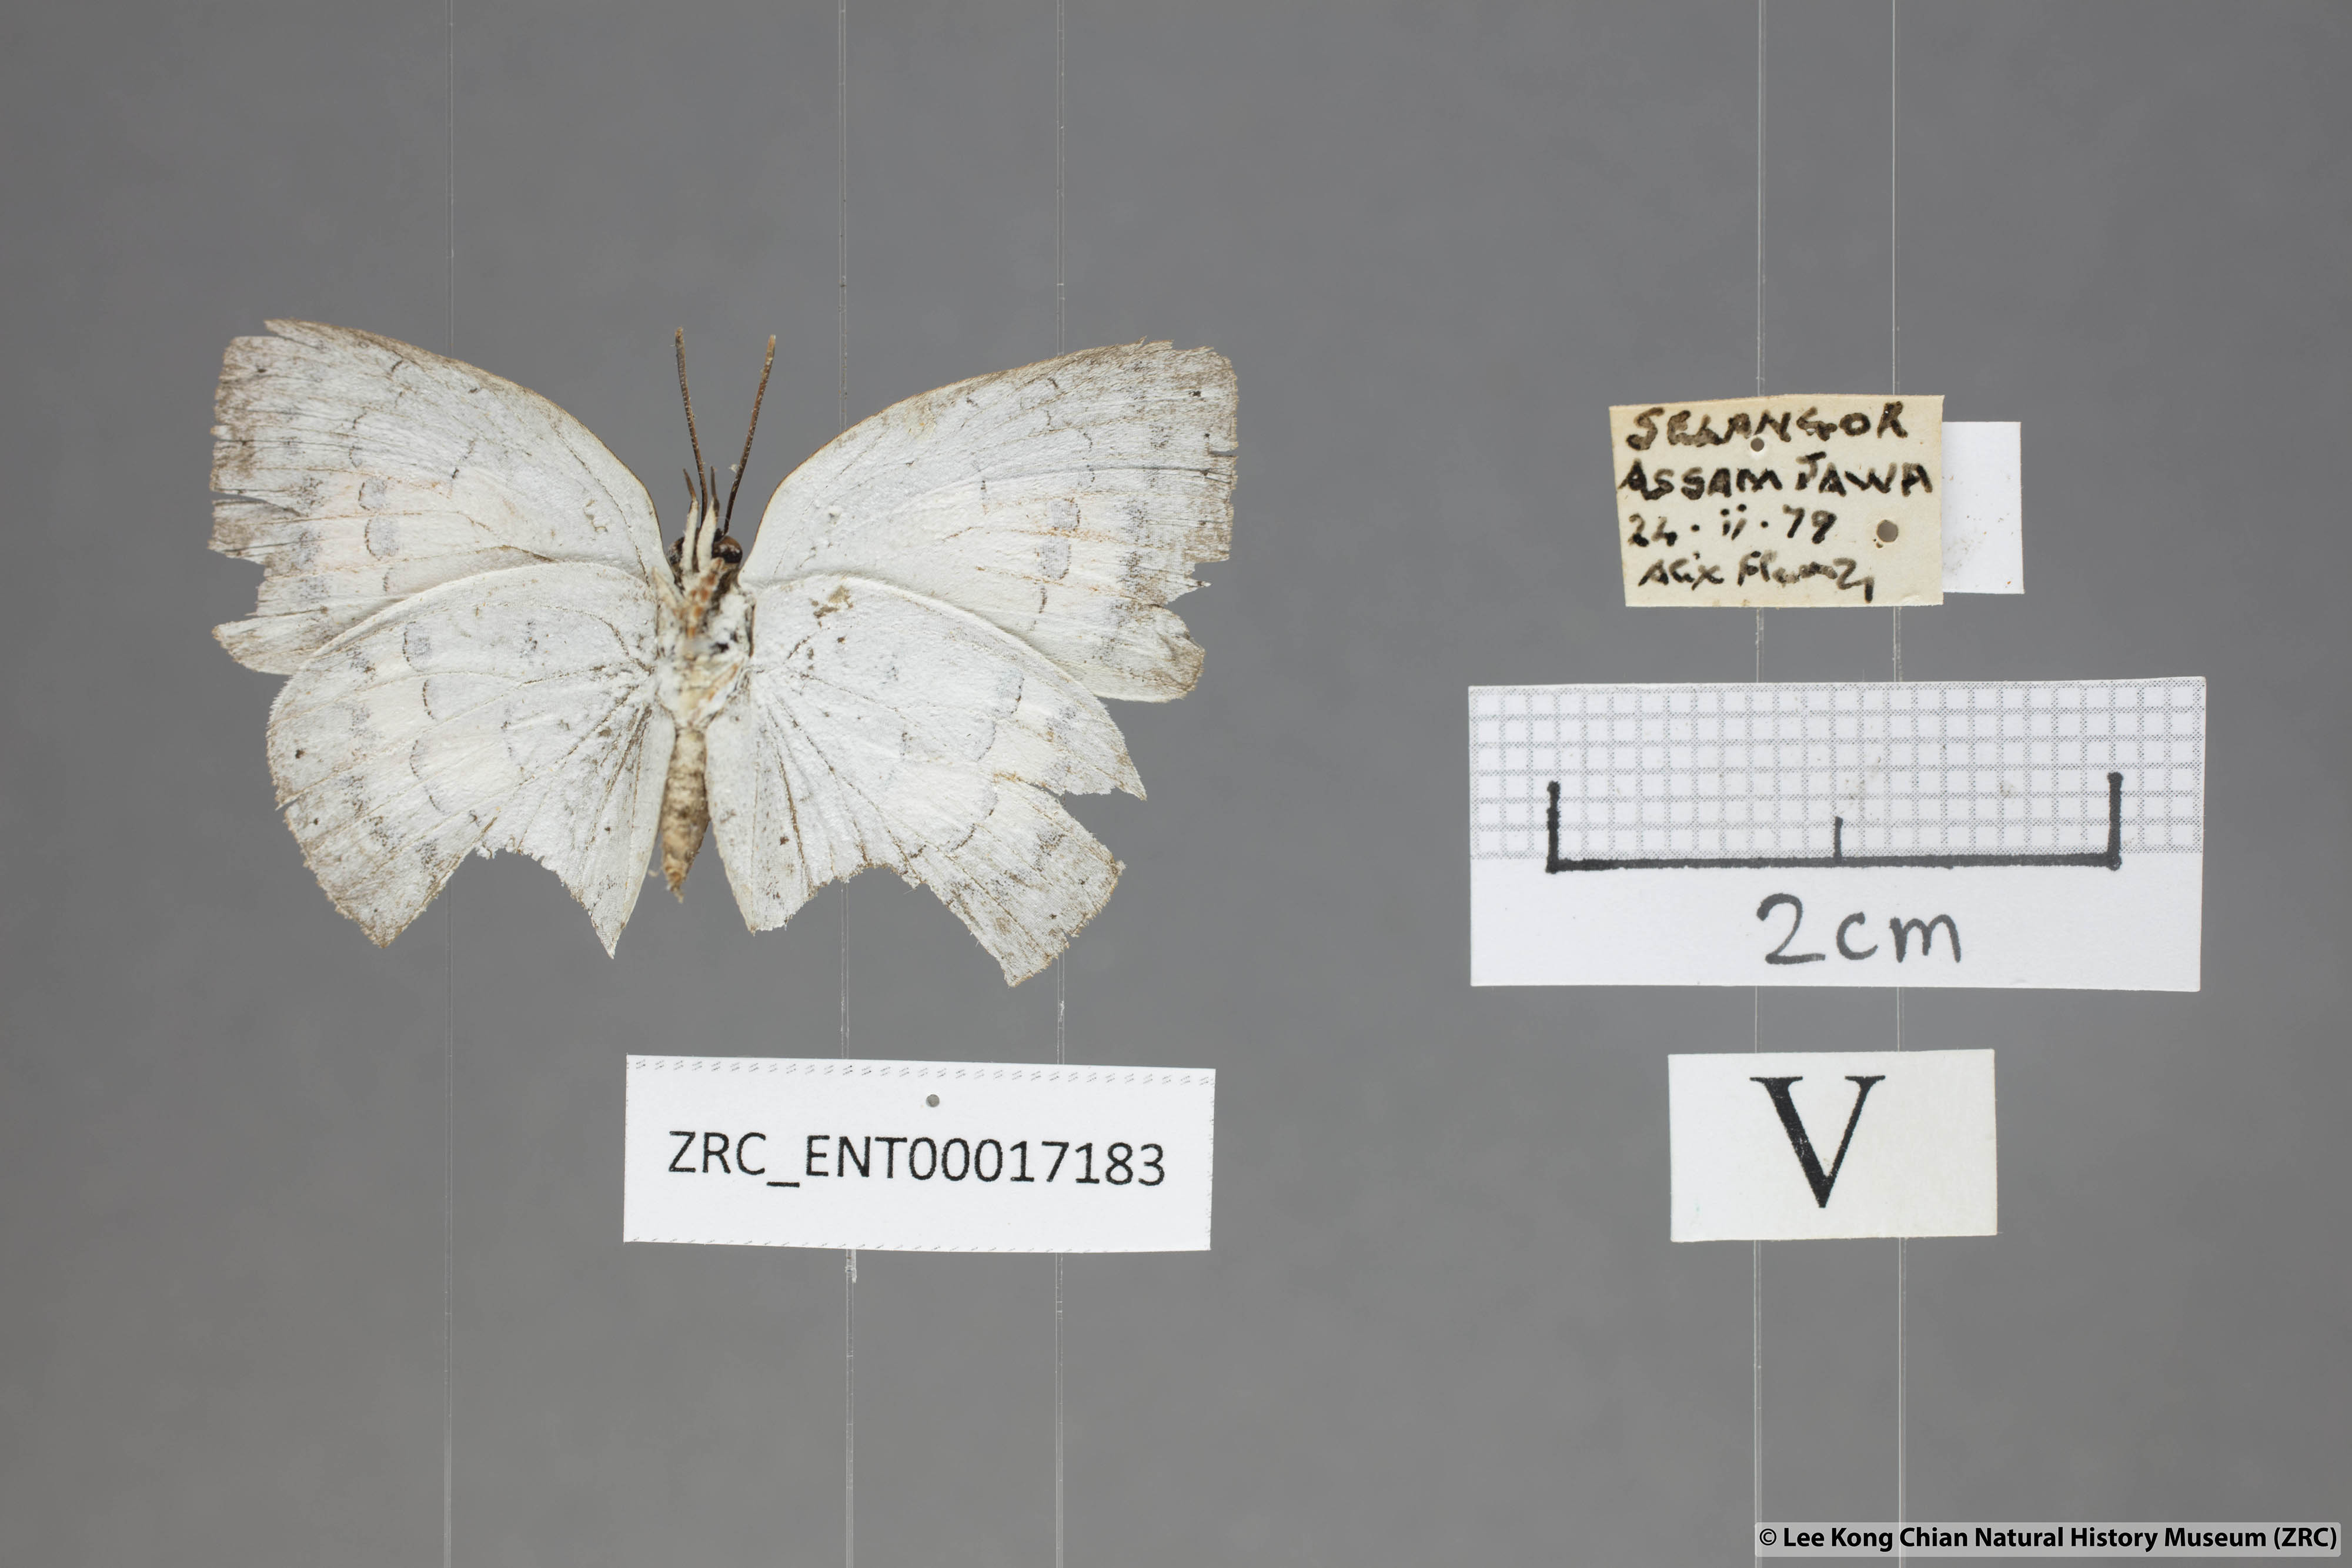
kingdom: Animalia
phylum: Arthropoda
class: Insecta
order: Lepidoptera
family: Lycaenidae
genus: Curetis
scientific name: Curetis saronis
